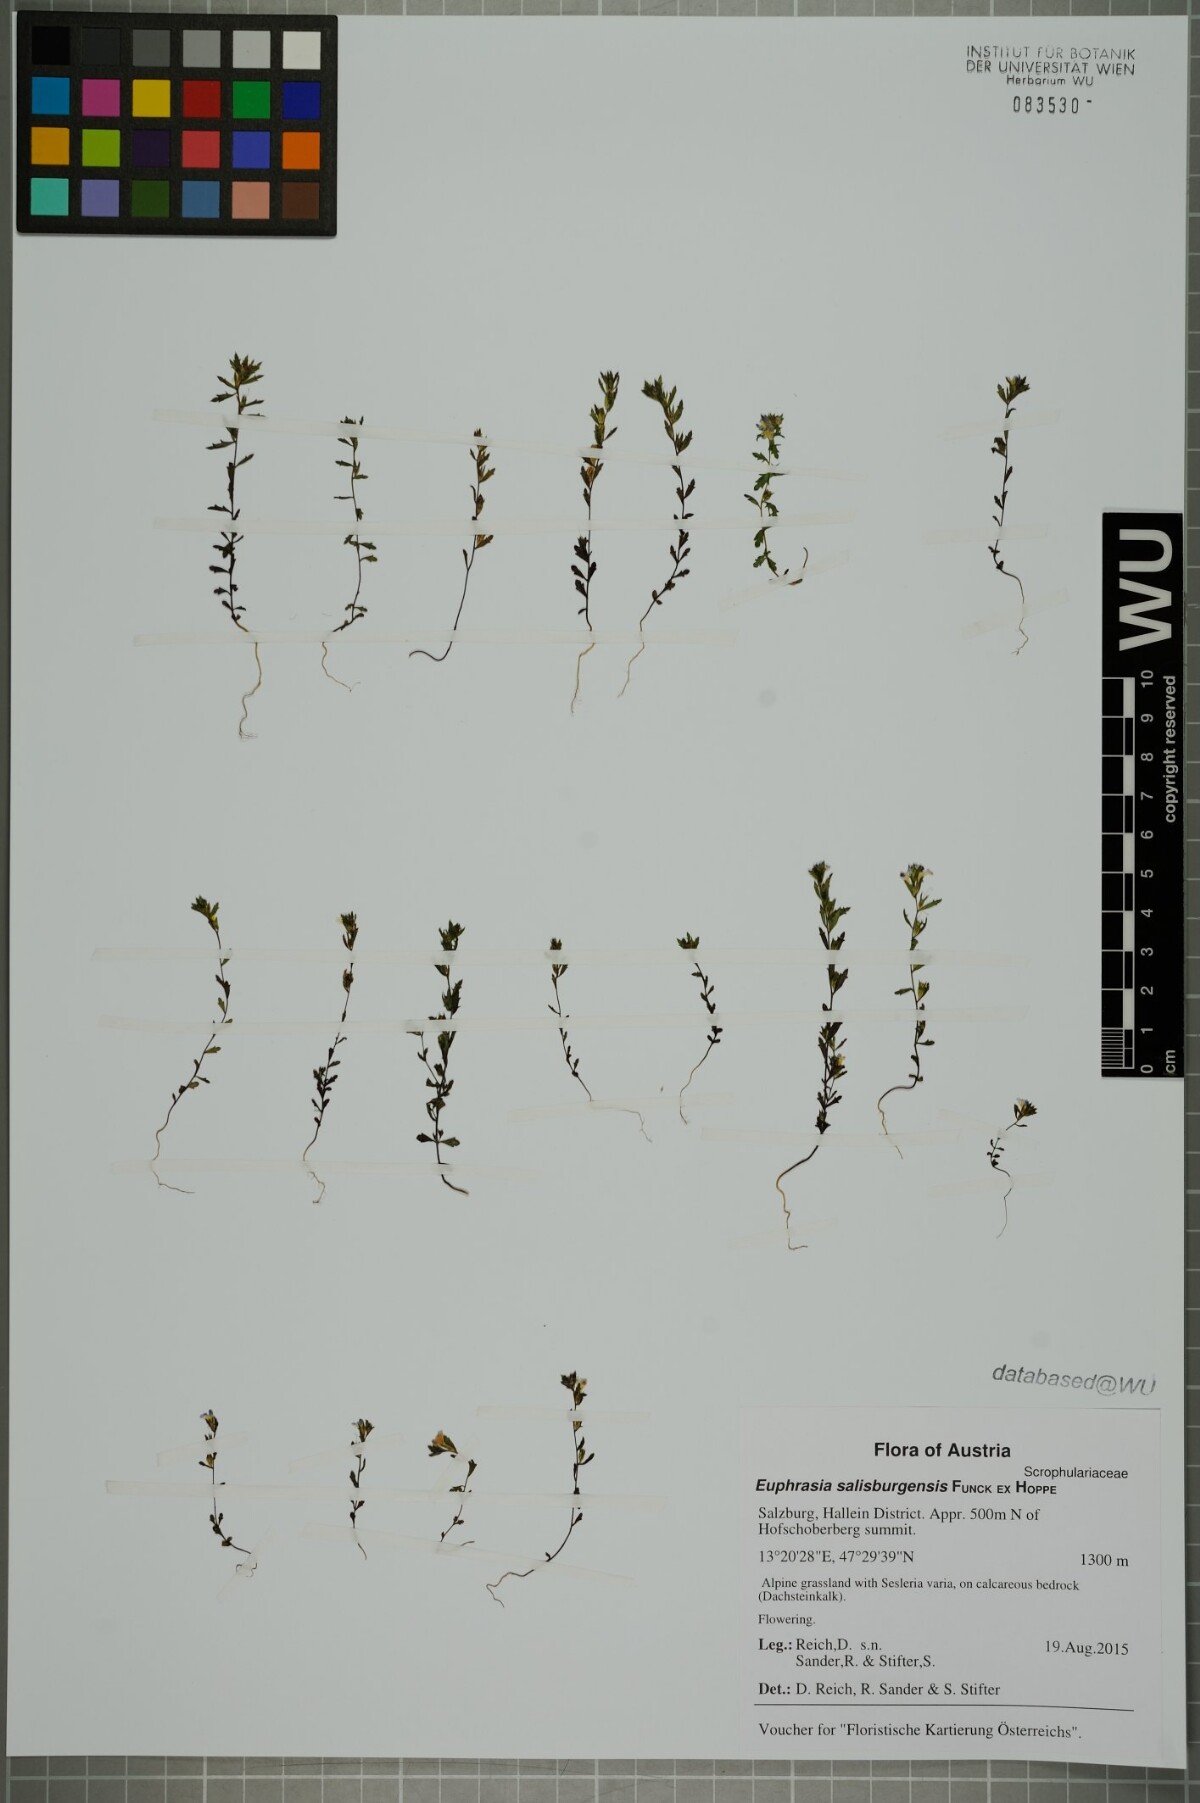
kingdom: Plantae
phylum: Tracheophyta
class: Magnoliopsida
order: Lamiales
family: Orobanchaceae
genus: Euphrasia
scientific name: Euphrasia salisburgensis
